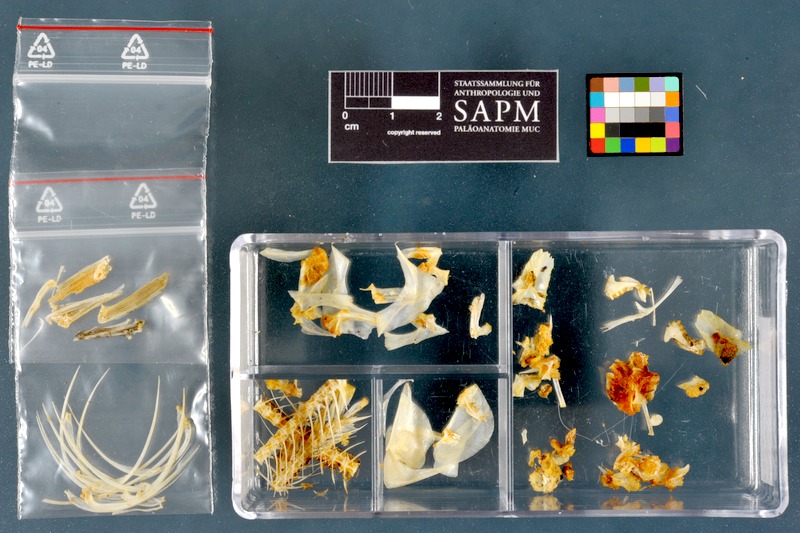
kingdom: Animalia
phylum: Chordata
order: Characiformes
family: Alestidae
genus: Brycinus
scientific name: Brycinus nurse
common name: Nurse tetra
